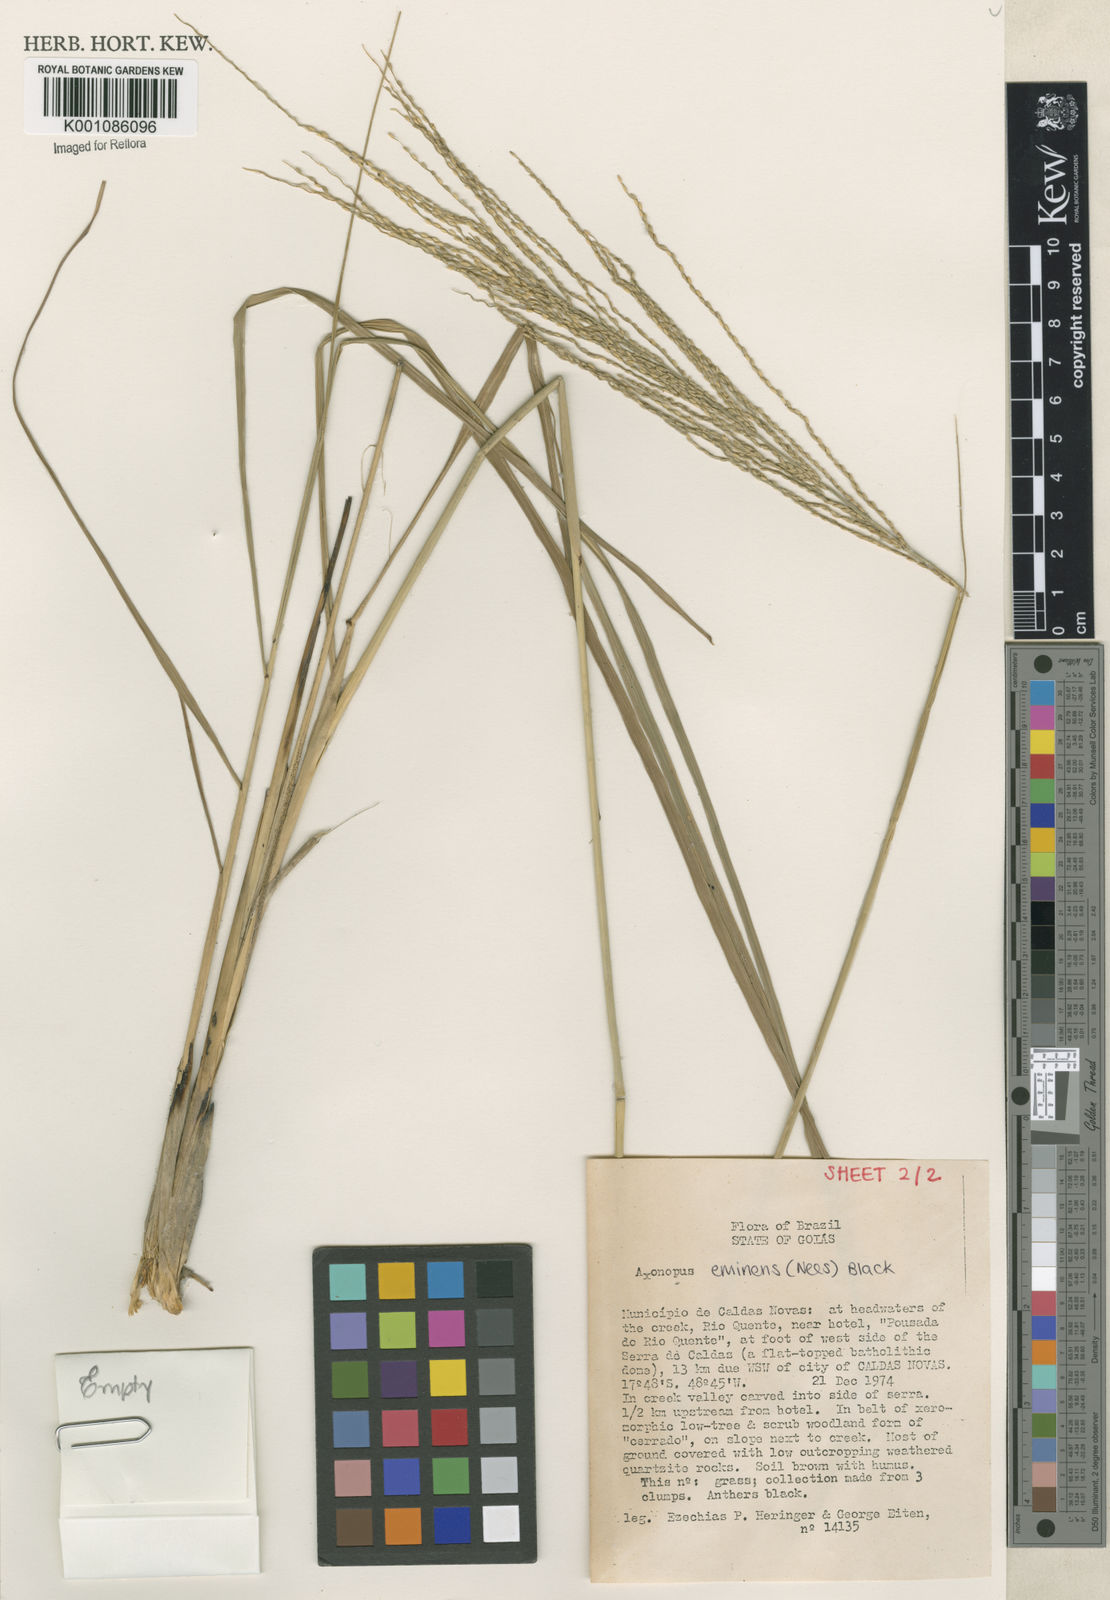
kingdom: Plantae
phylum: Tracheophyta
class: Liliopsida
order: Poales
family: Poaceae
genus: Axonopus
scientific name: Axonopus eminens
